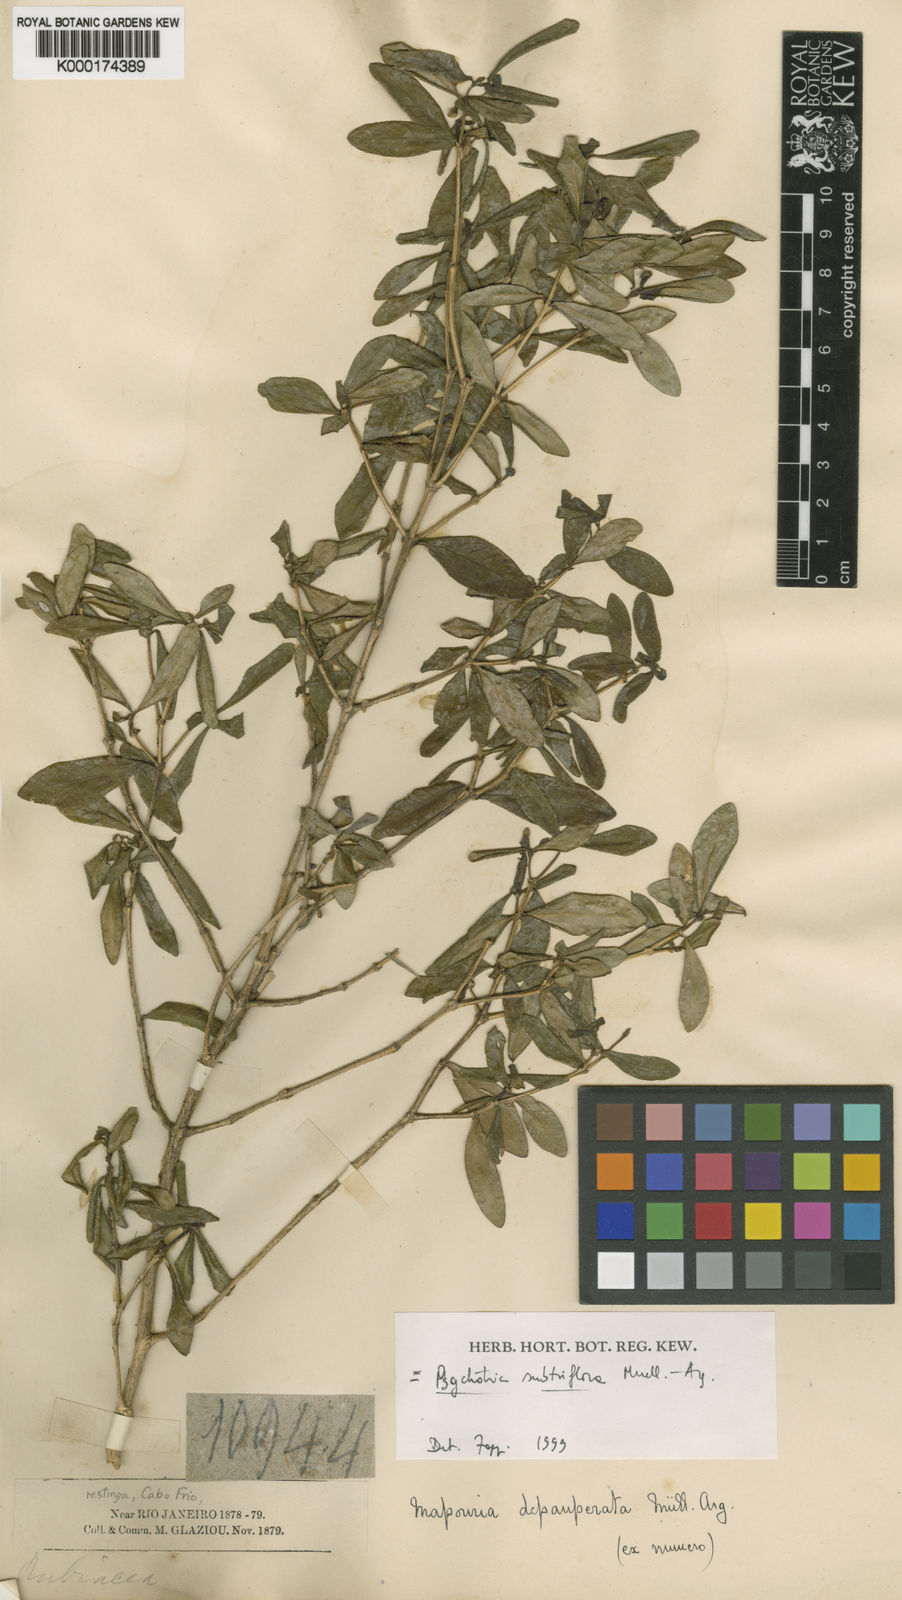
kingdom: Plantae
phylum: Tracheophyta
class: Magnoliopsida
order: Gentianales
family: Rubiaceae
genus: Eumachia
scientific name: Eumachia depauperata
